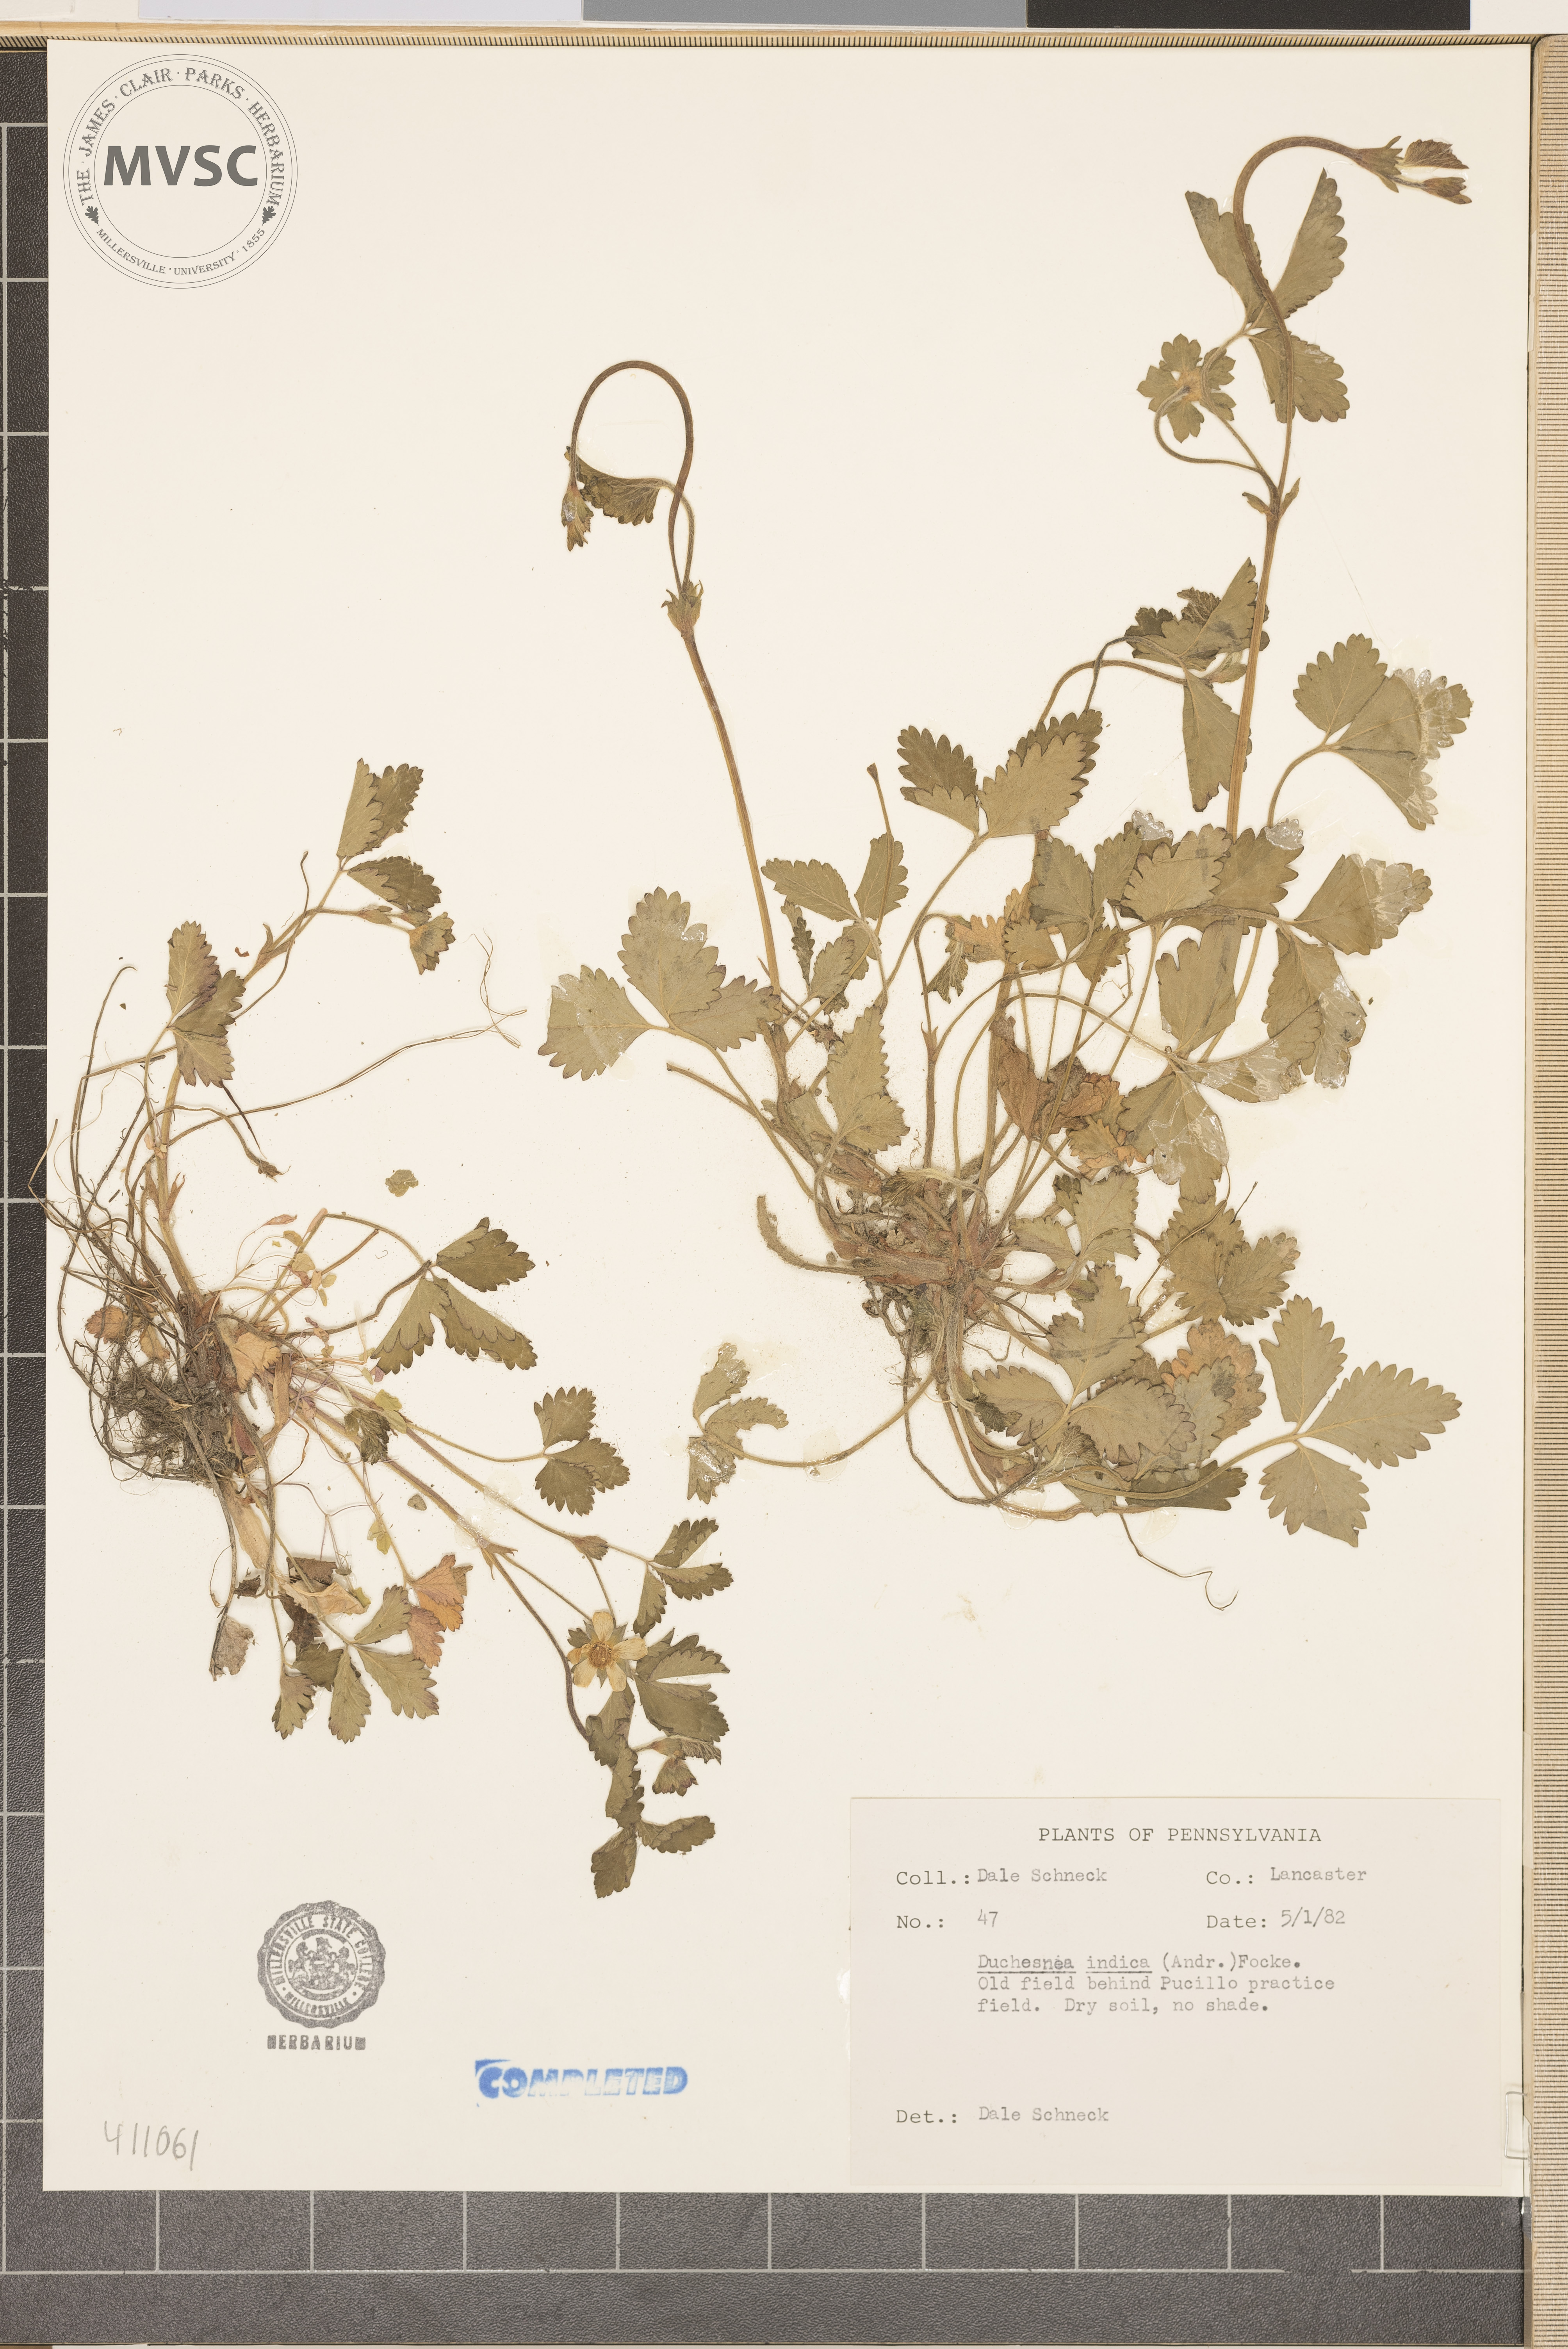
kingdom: Plantae
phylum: Tracheophyta
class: Magnoliopsida
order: Rosales
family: Rosaceae
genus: Potentilla
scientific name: Potentilla indica
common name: Yellow-flowered strawberry
